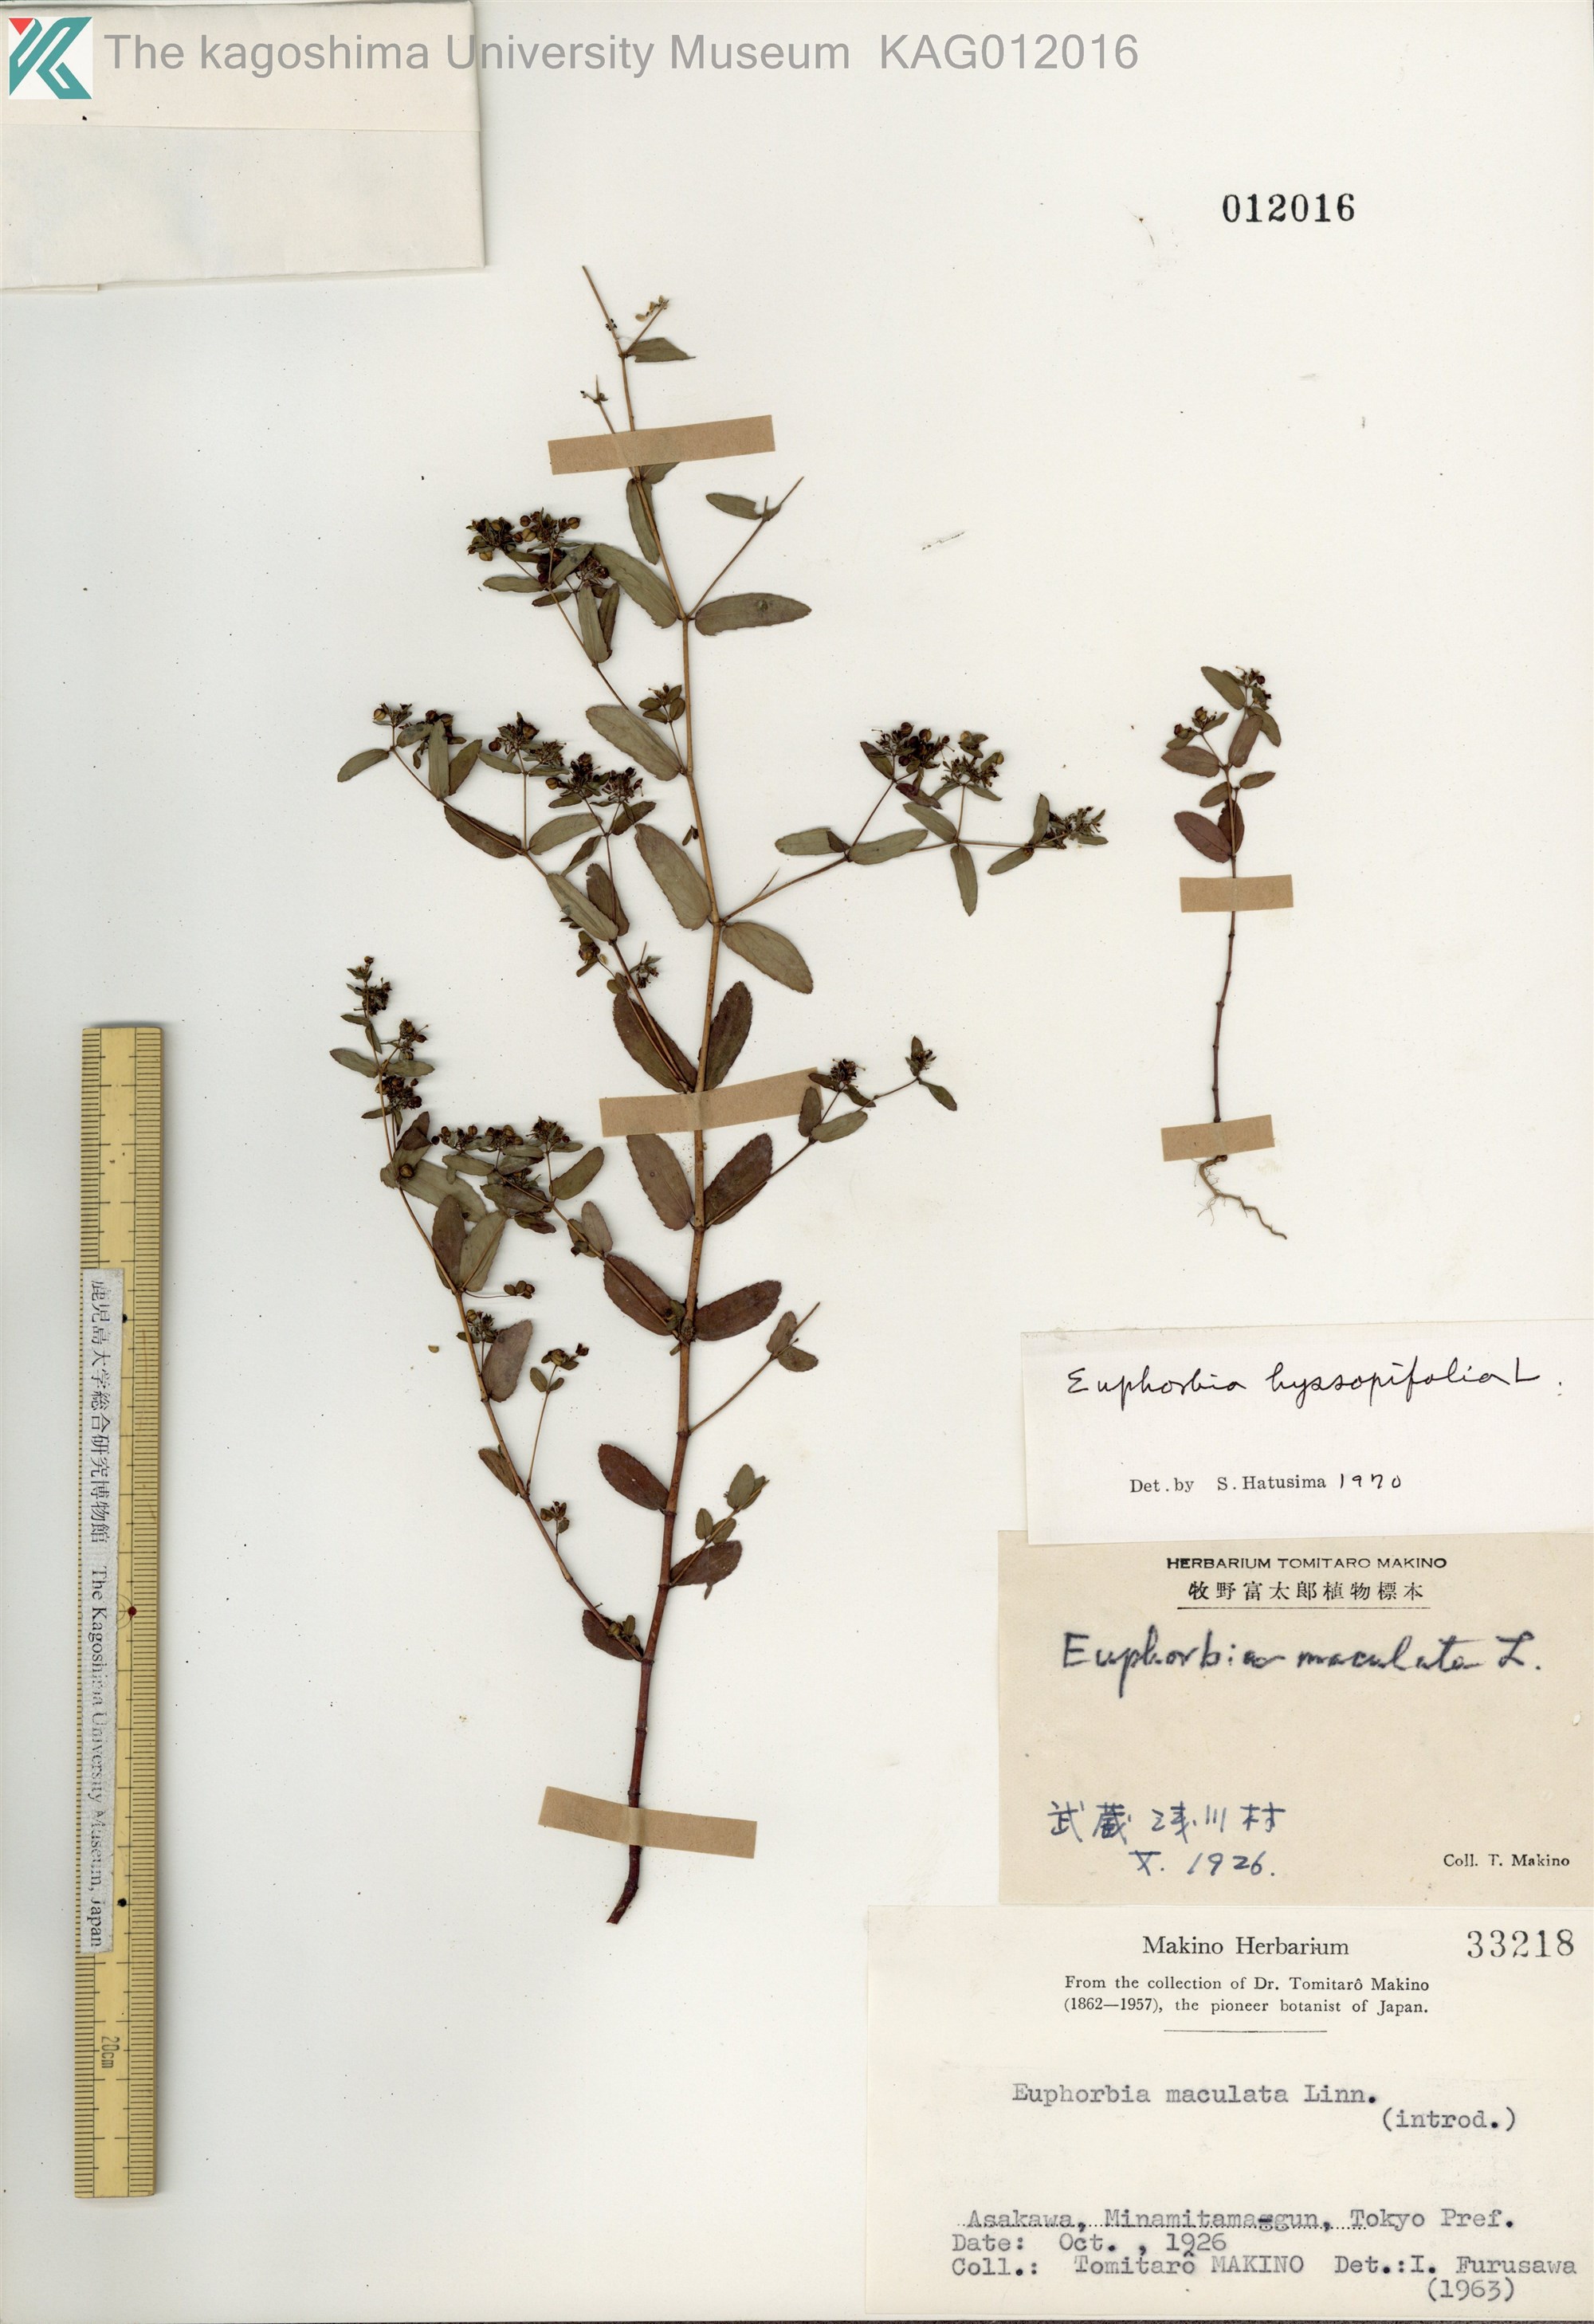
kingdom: Plantae
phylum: Tracheophyta
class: Magnoliopsida
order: Malpighiales
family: Euphorbiaceae
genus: Euphorbia
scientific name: Euphorbia hyssopifolia
